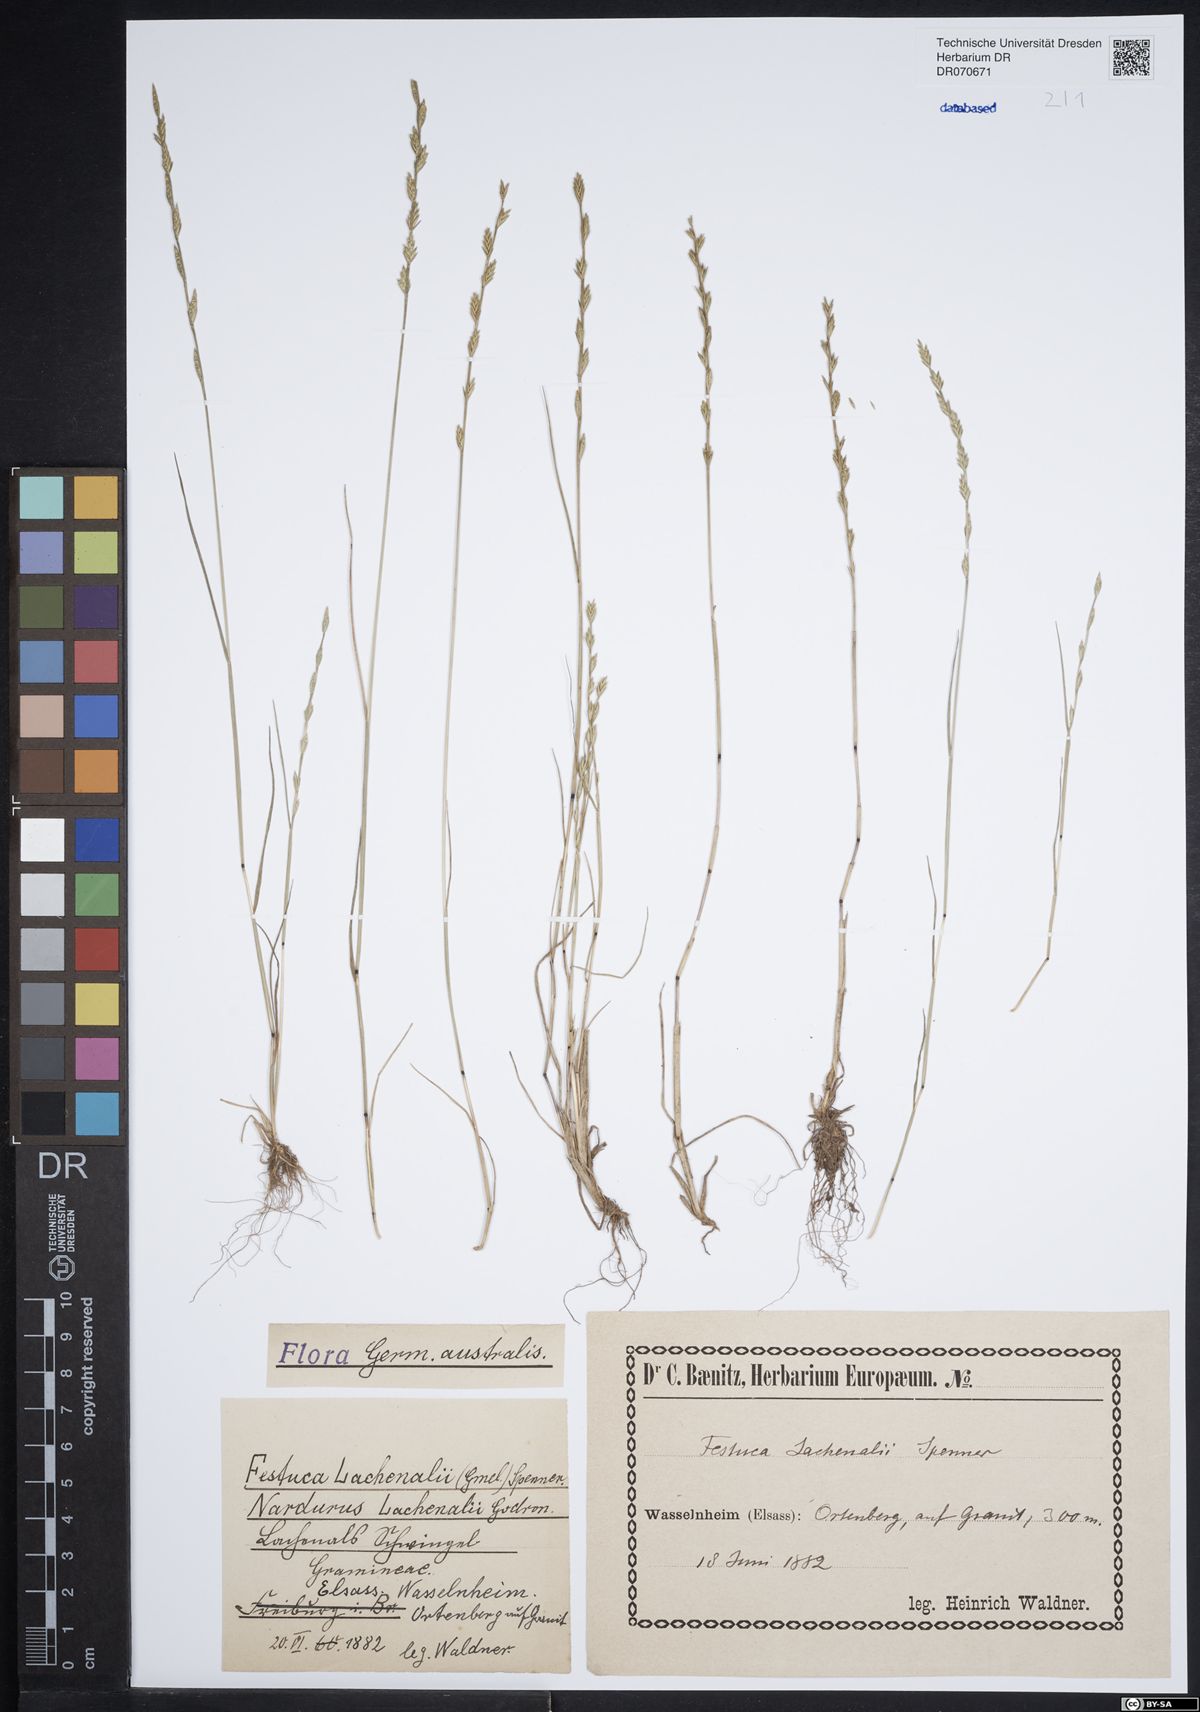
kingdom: Plantae
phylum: Tracheophyta
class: Liliopsida
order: Poales
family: Poaceae
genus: Festuca
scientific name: Festuca lachenalii
